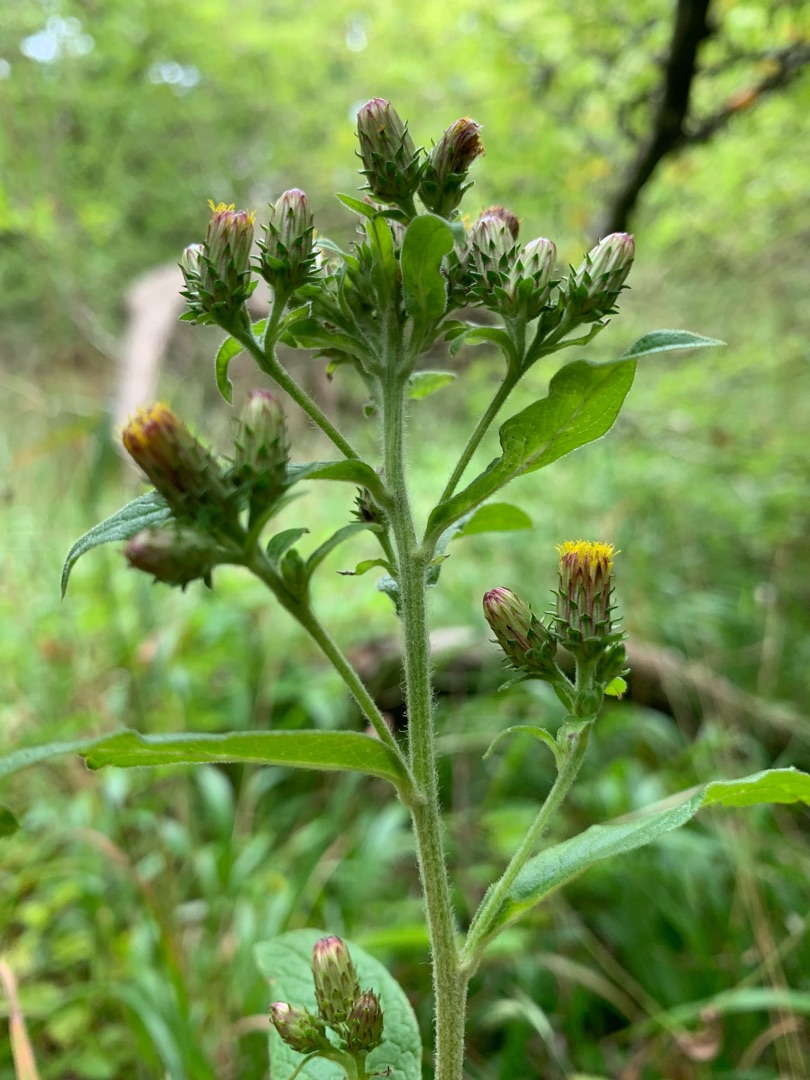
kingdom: Plantae
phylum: Tracheophyta
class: Magnoliopsida
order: Asterales
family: Asteraceae
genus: Pentanema
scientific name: Pentanema squarrosum
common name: Trekløft-alant
